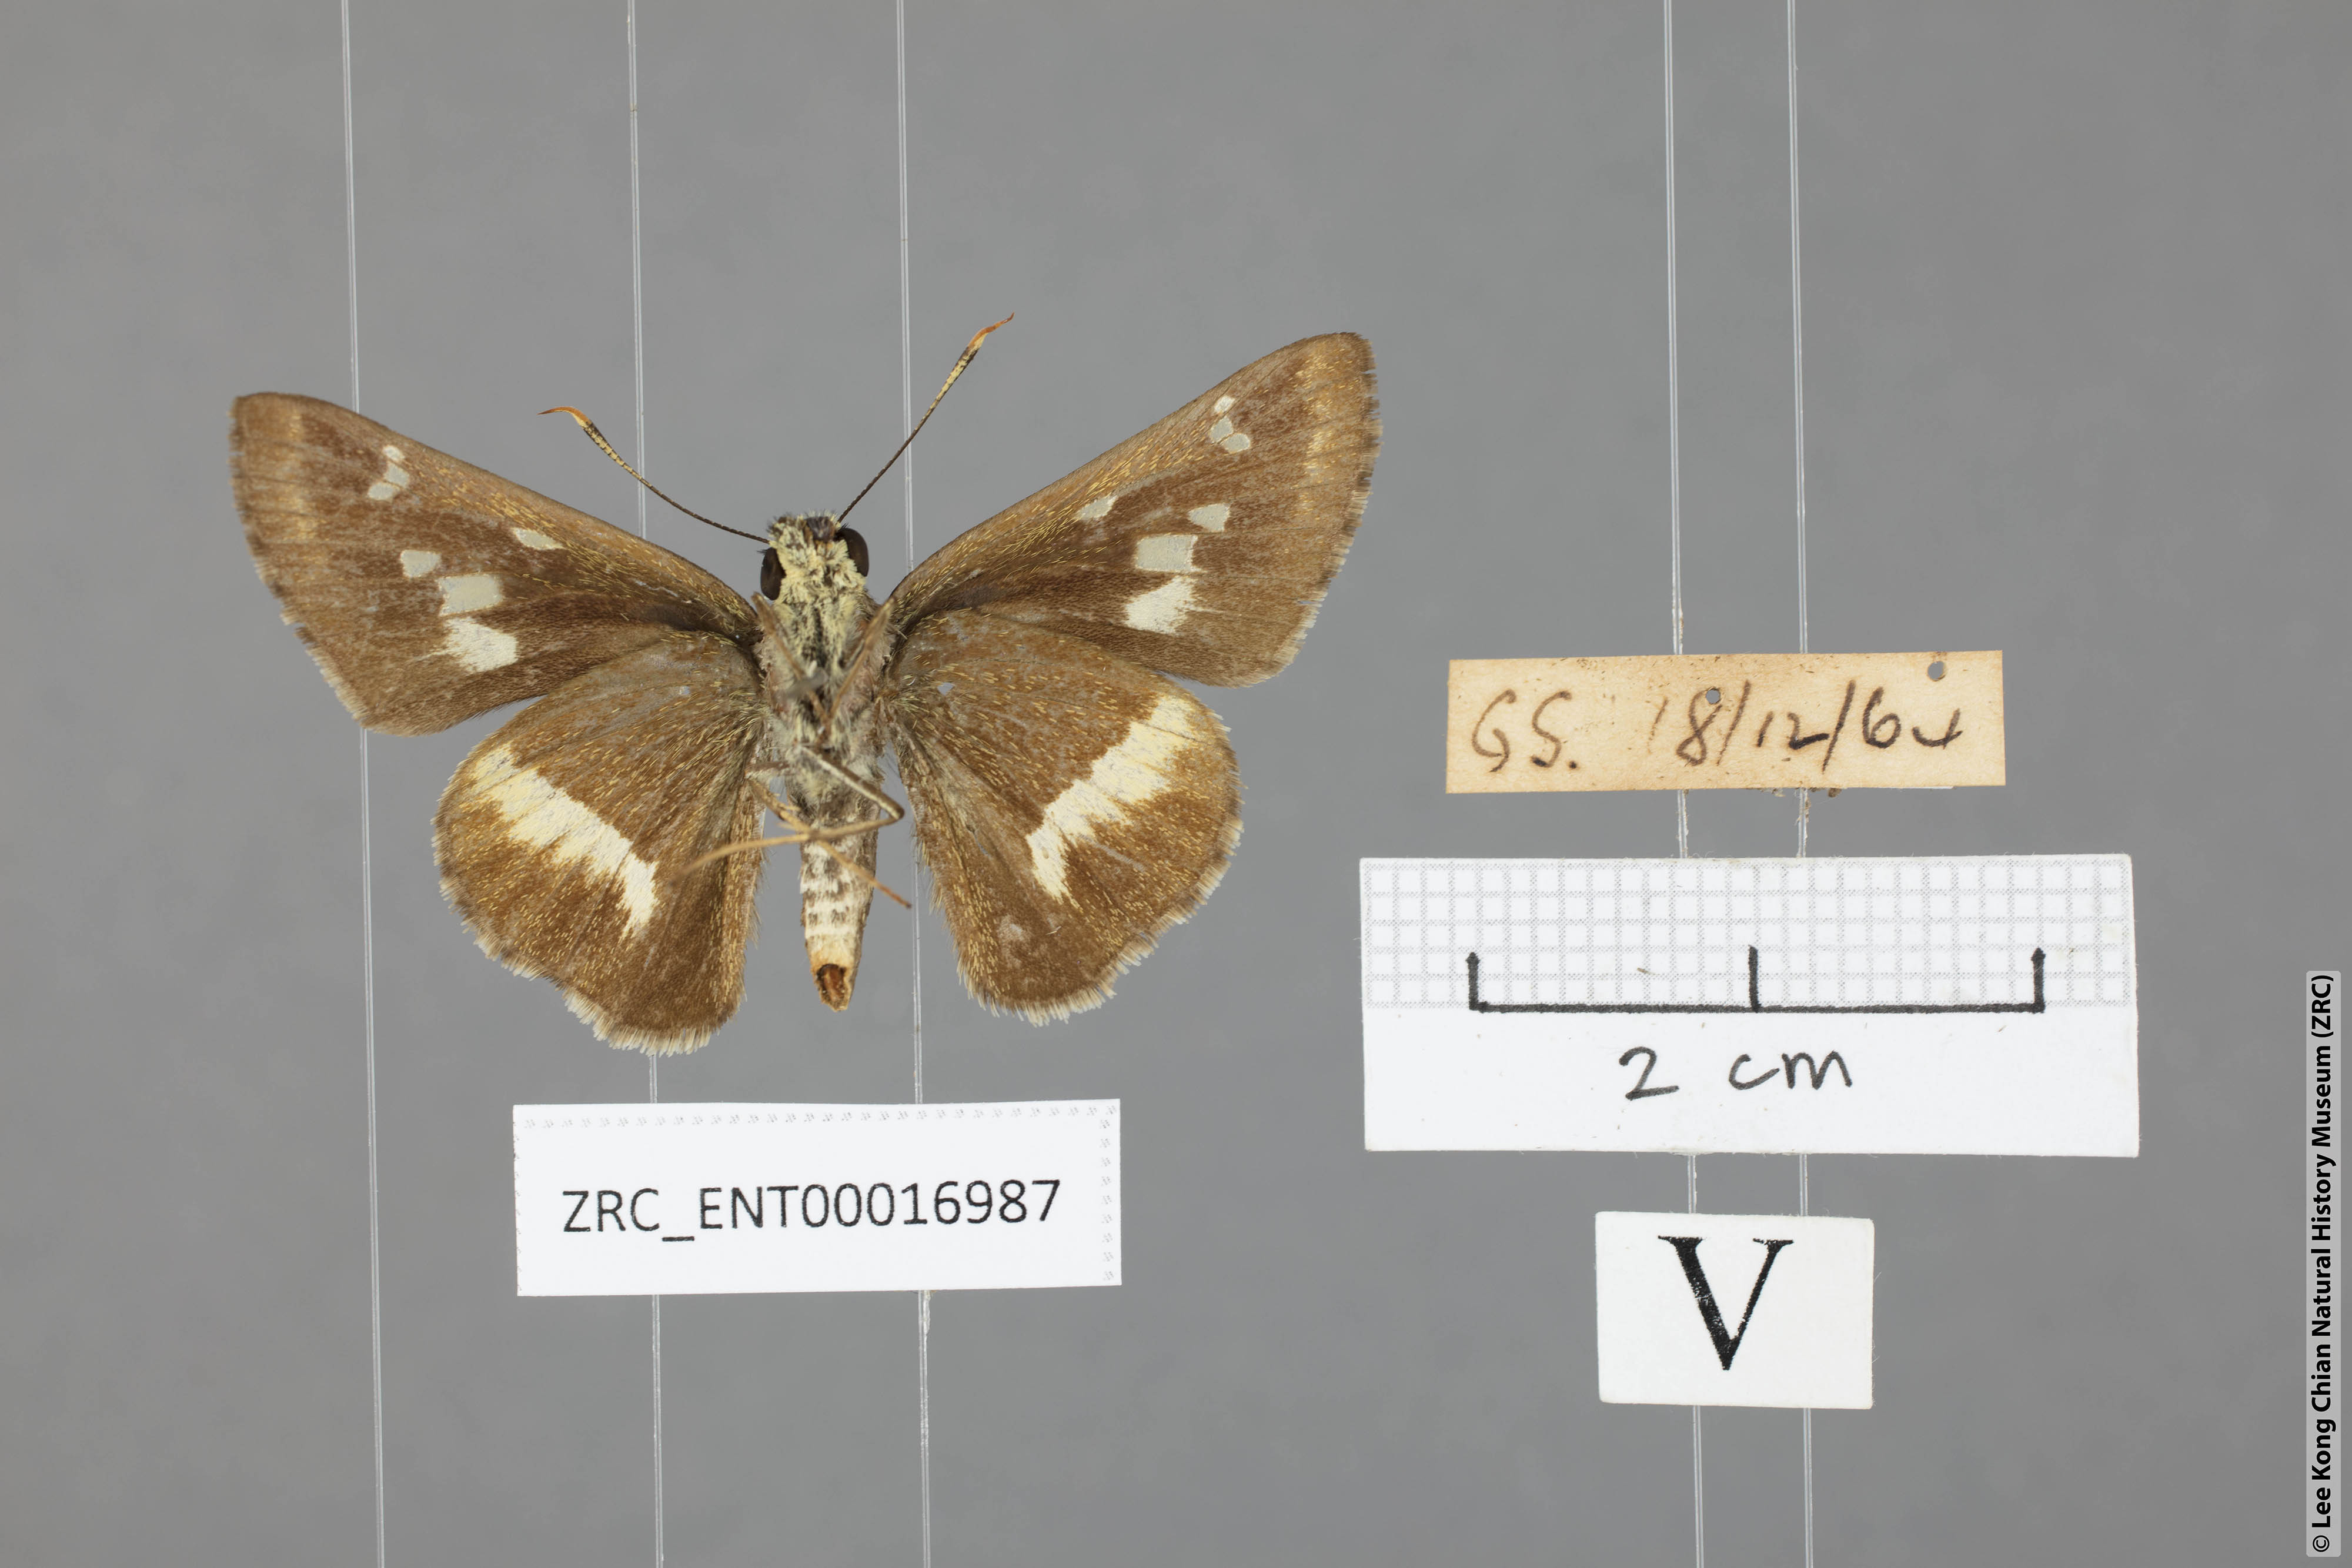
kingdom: Animalia
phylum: Arthropoda
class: Insecta
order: Lepidoptera
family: Hesperiidae
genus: Halpe
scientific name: Halpe elana
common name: Narrow-banded ace
